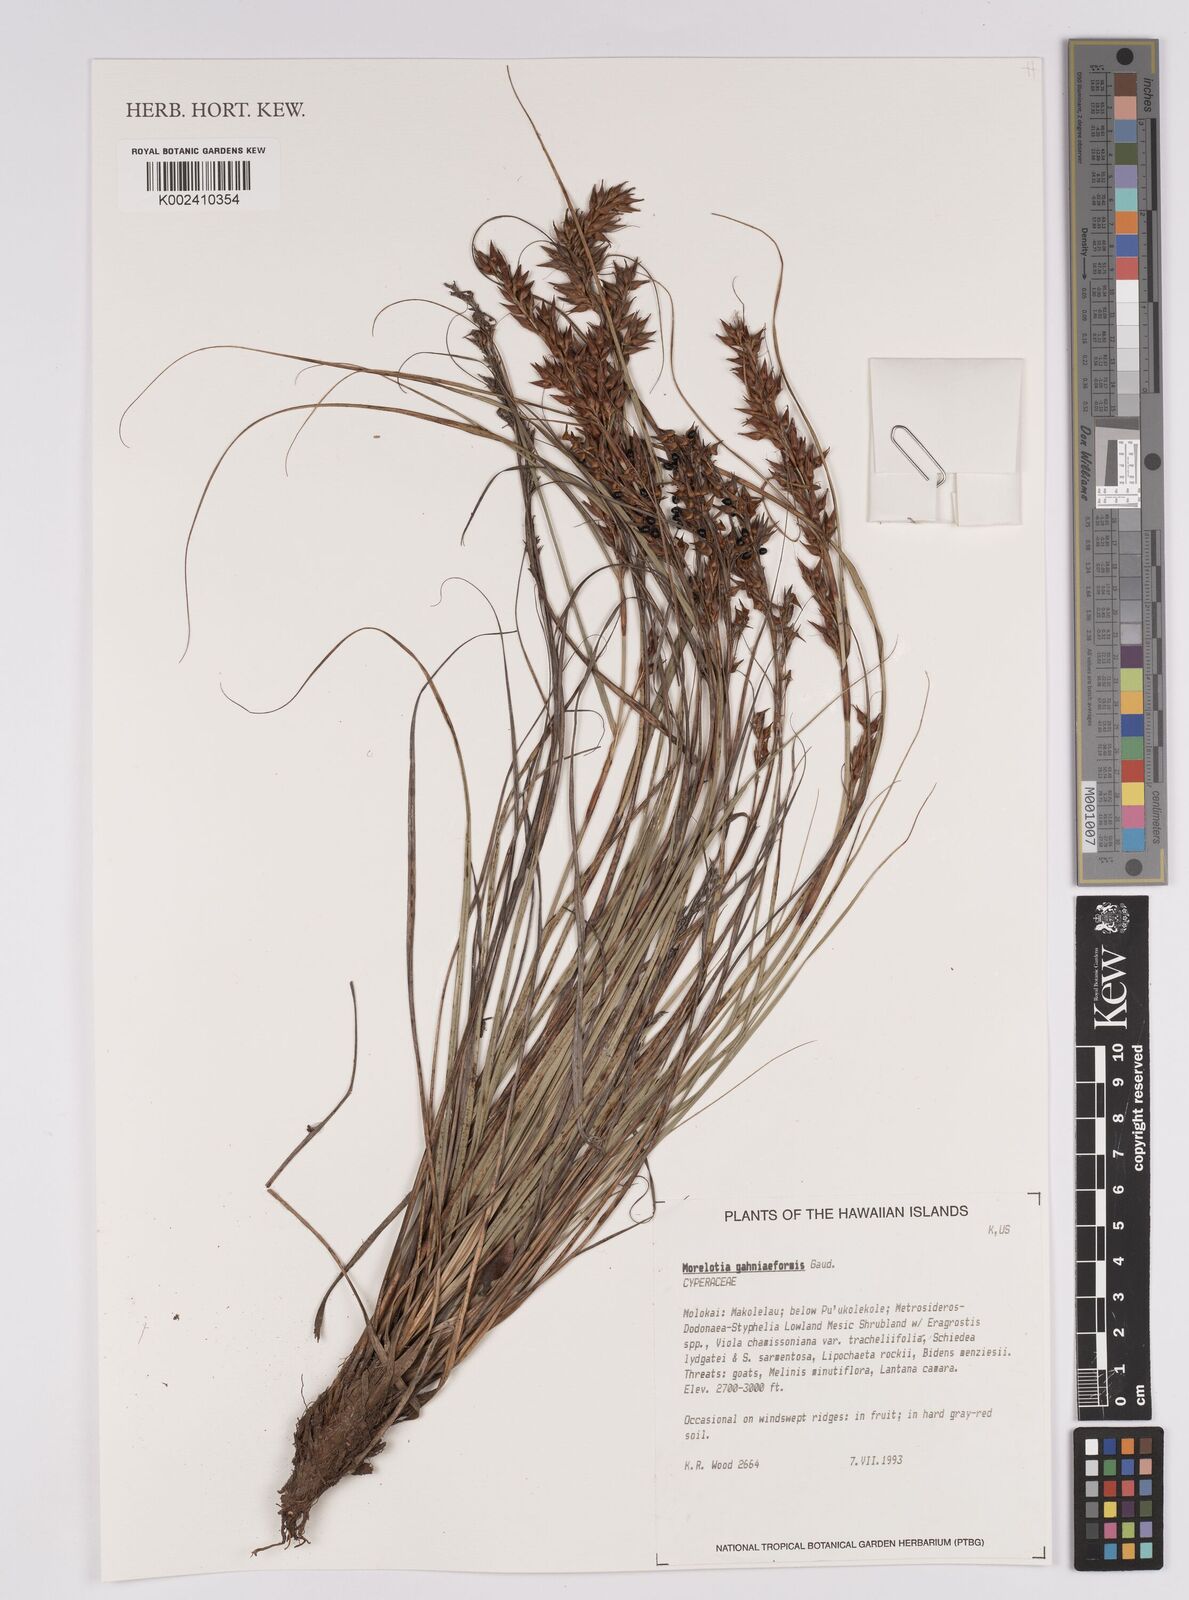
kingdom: Plantae
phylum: Tracheophyta
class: Liliopsida
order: Poales
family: Cyperaceae
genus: Morelotia
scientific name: Morelotia gahniiformis
